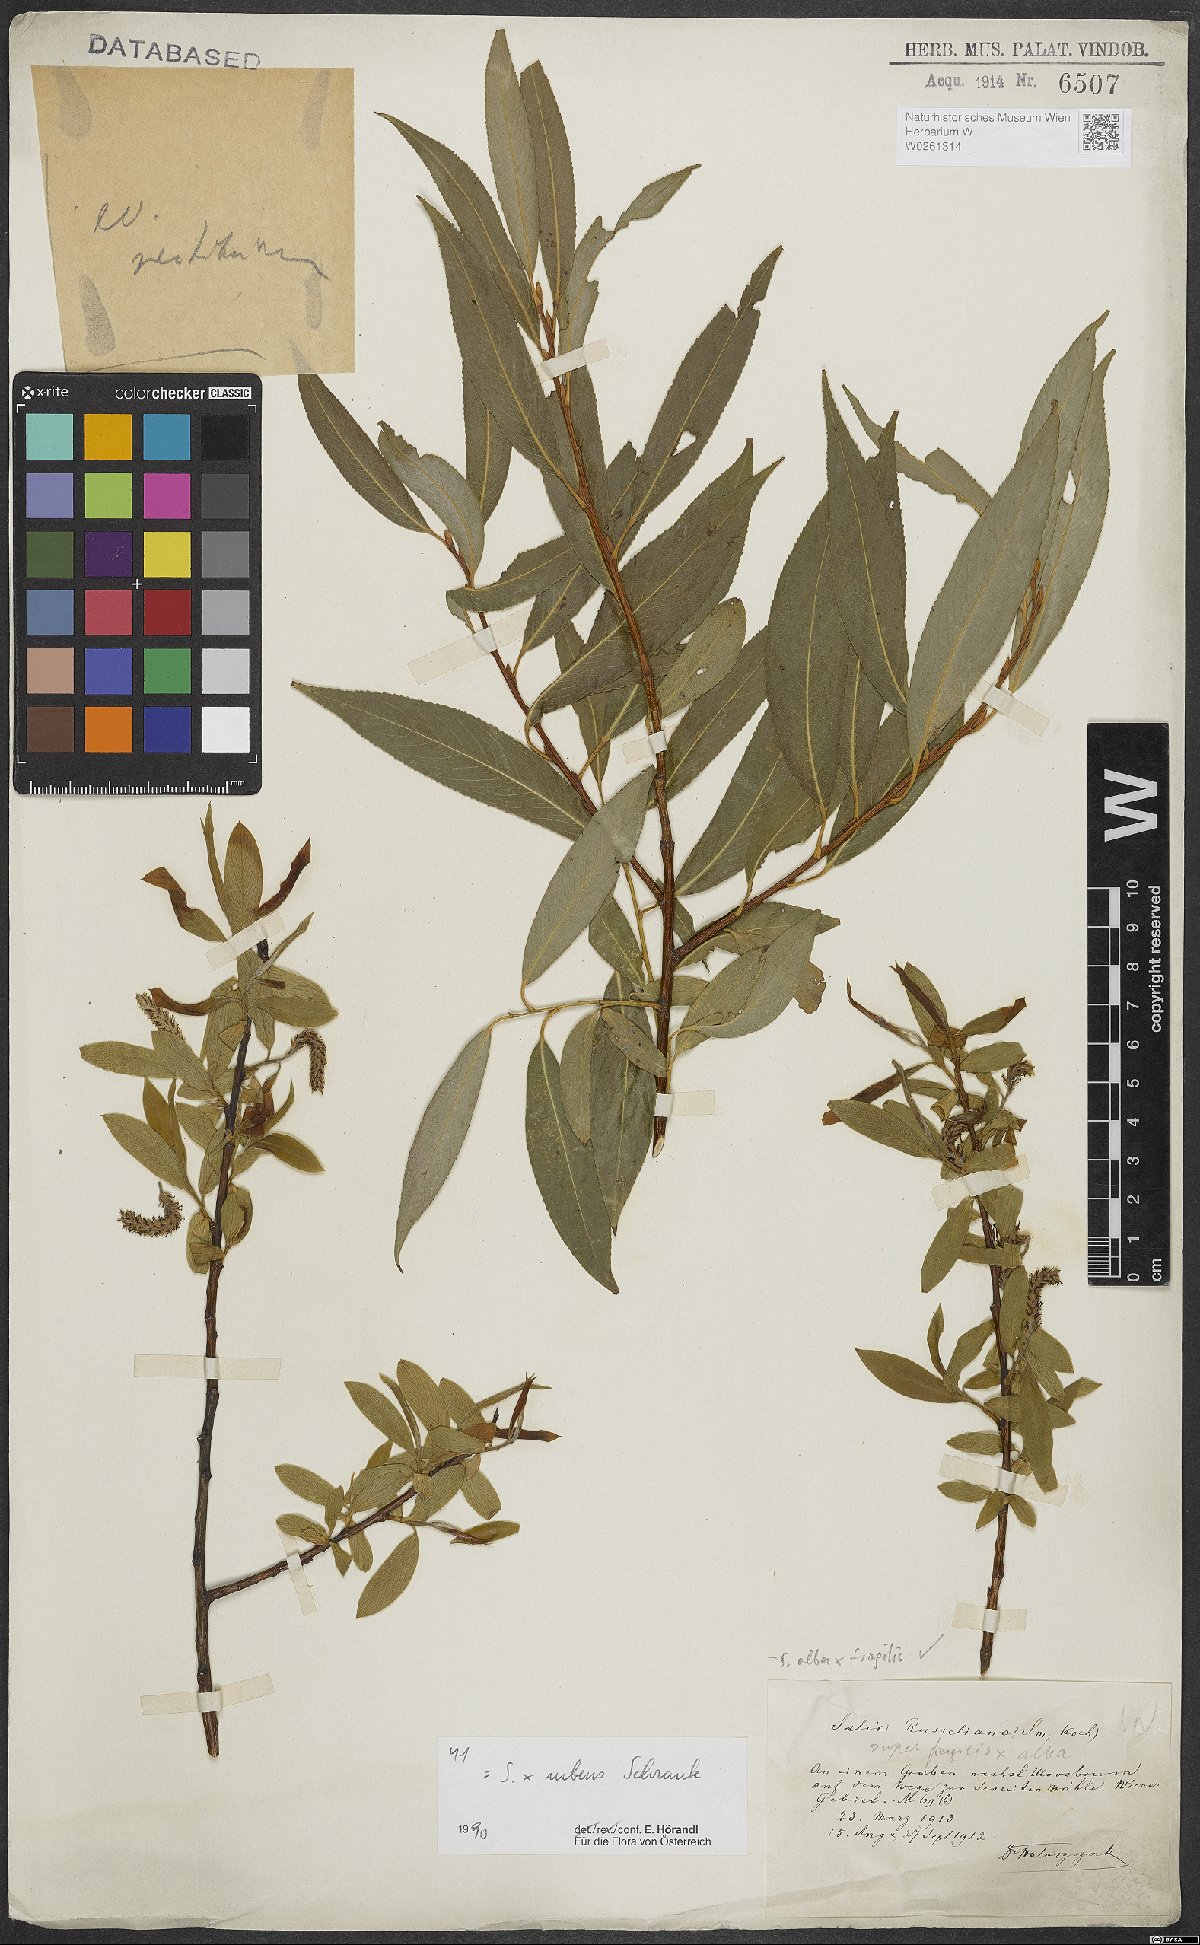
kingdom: Plantae
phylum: Tracheophyta
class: Magnoliopsida
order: Malpighiales
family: Salicaceae
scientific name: Salicaceae
